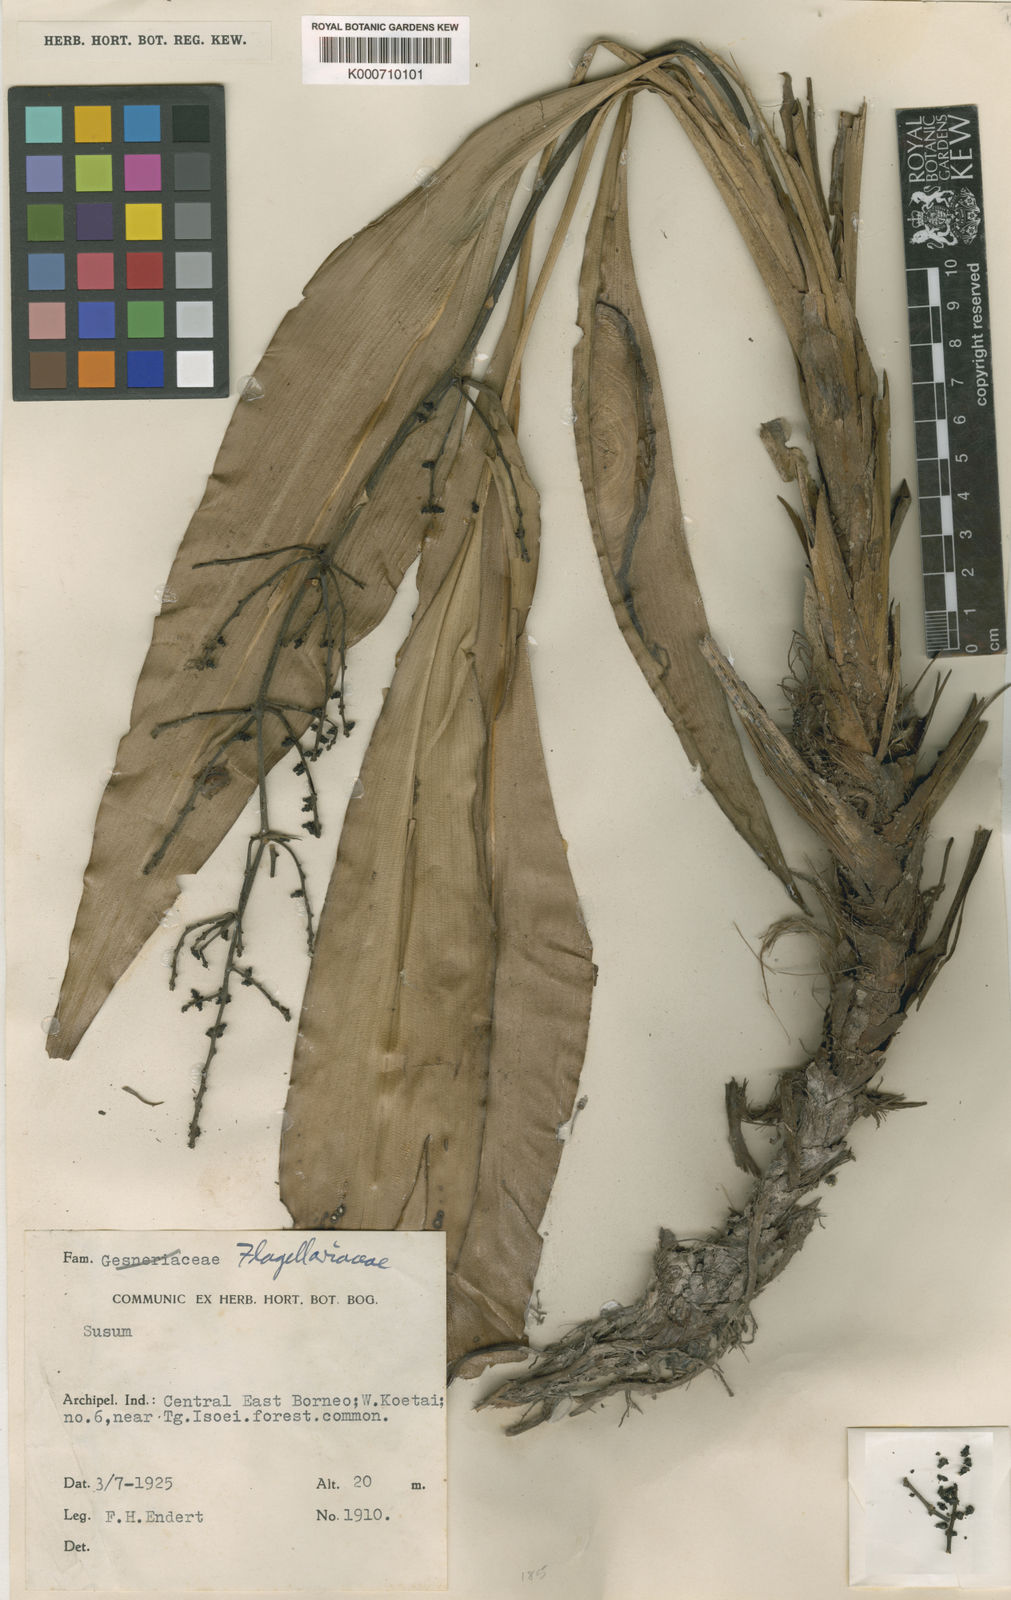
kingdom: Plantae
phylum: Tracheophyta
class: Liliopsida
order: Commelinales
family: Hanguanaceae
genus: Hanguana
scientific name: Hanguana malayana
